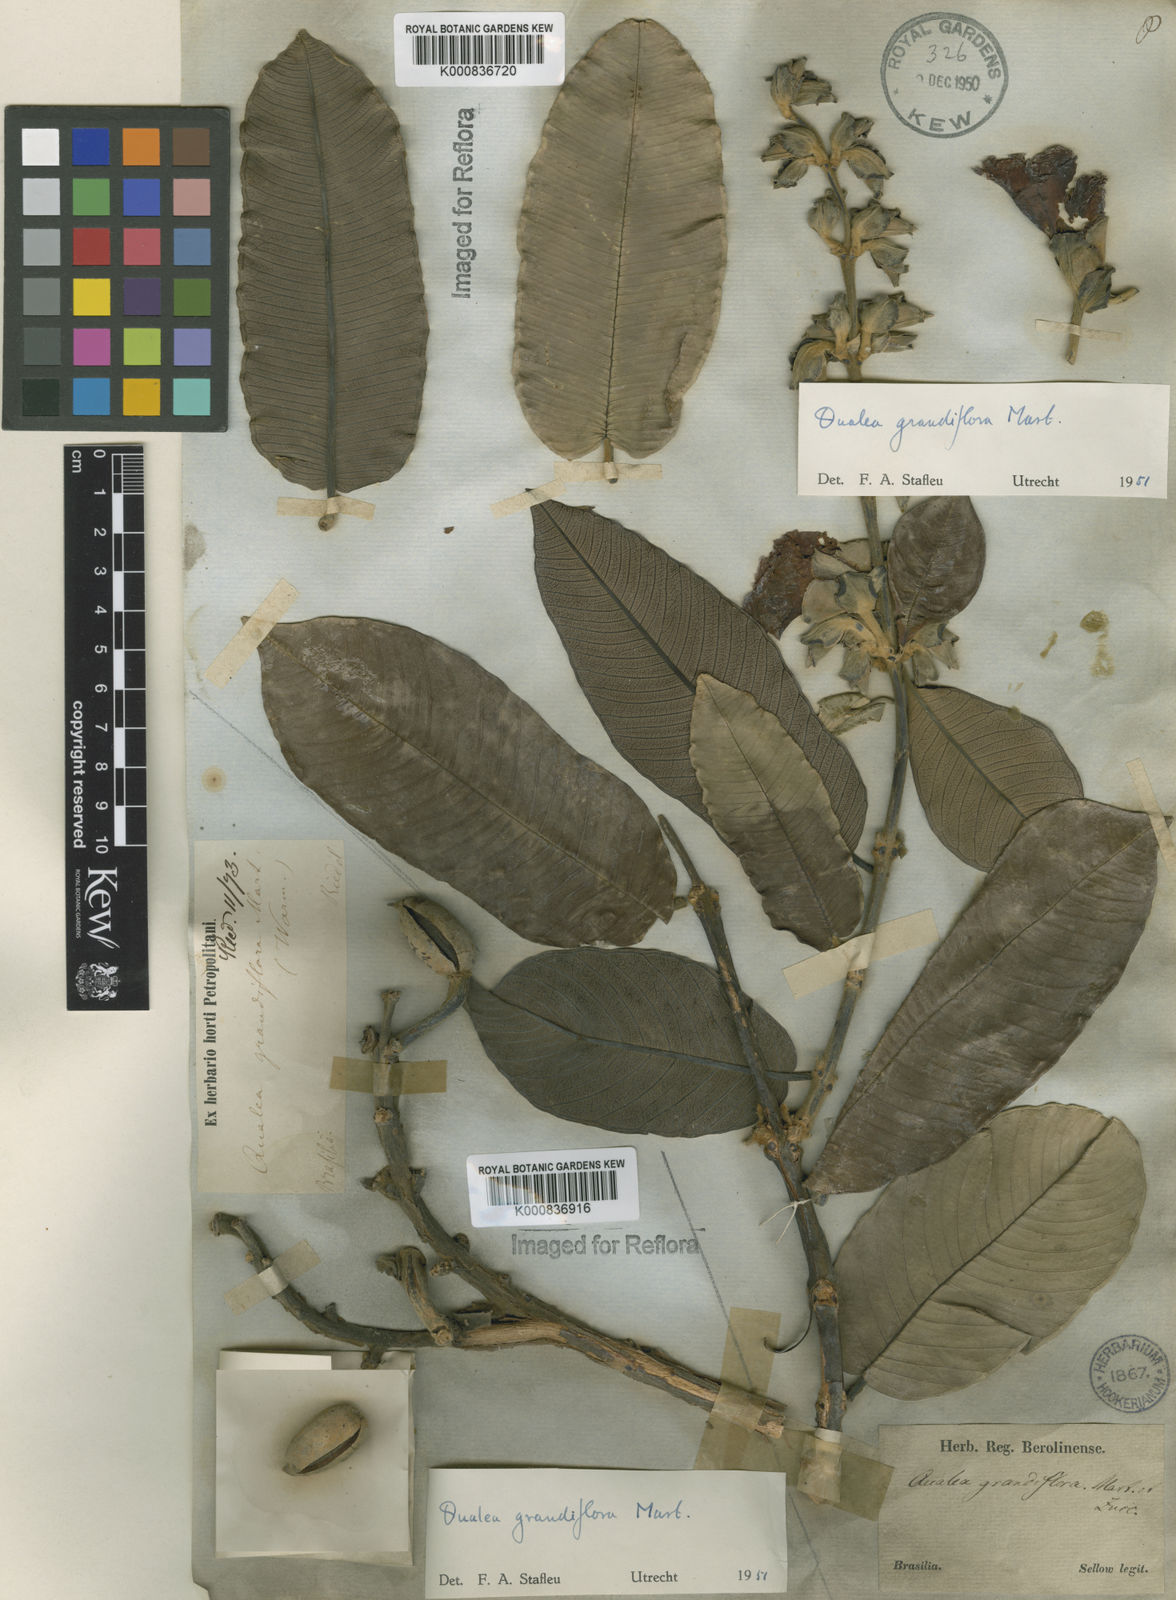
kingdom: Plantae
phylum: Tracheophyta
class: Magnoliopsida
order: Myrtales
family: Vochysiaceae
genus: Qualea
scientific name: Qualea grandiflora
